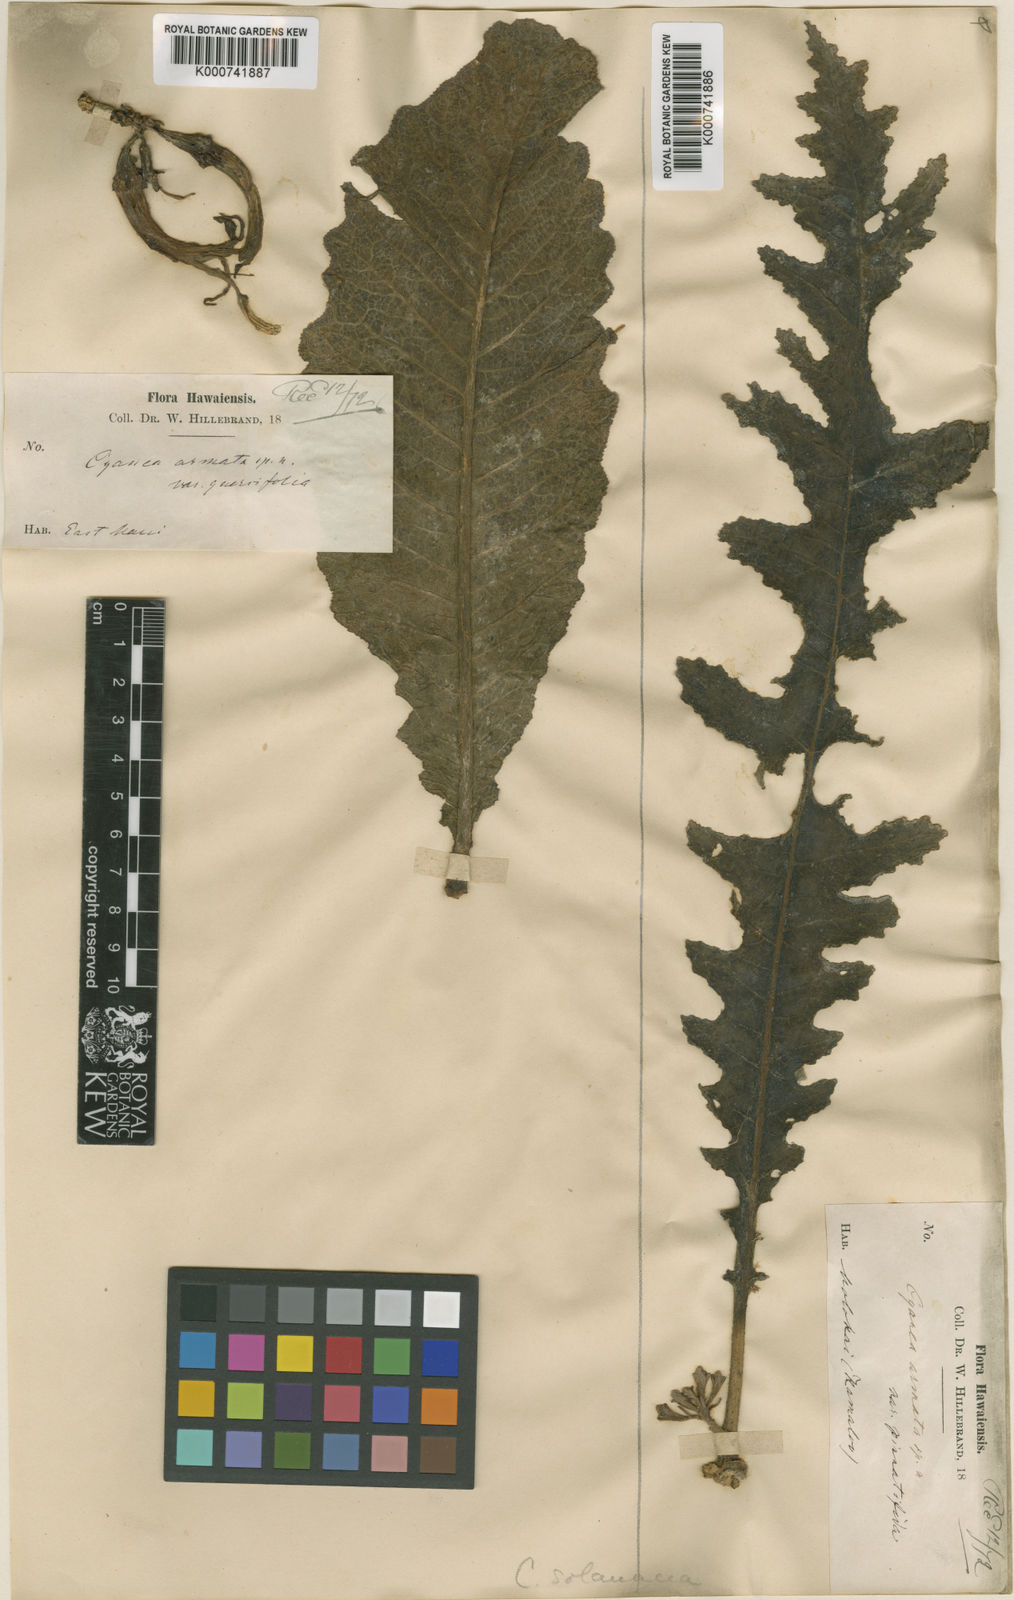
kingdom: Plantae
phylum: Tracheophyta
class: Magnoliopsida
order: Asterales
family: Campanulaceae
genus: Cyanea
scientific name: Cyanea solanacea
